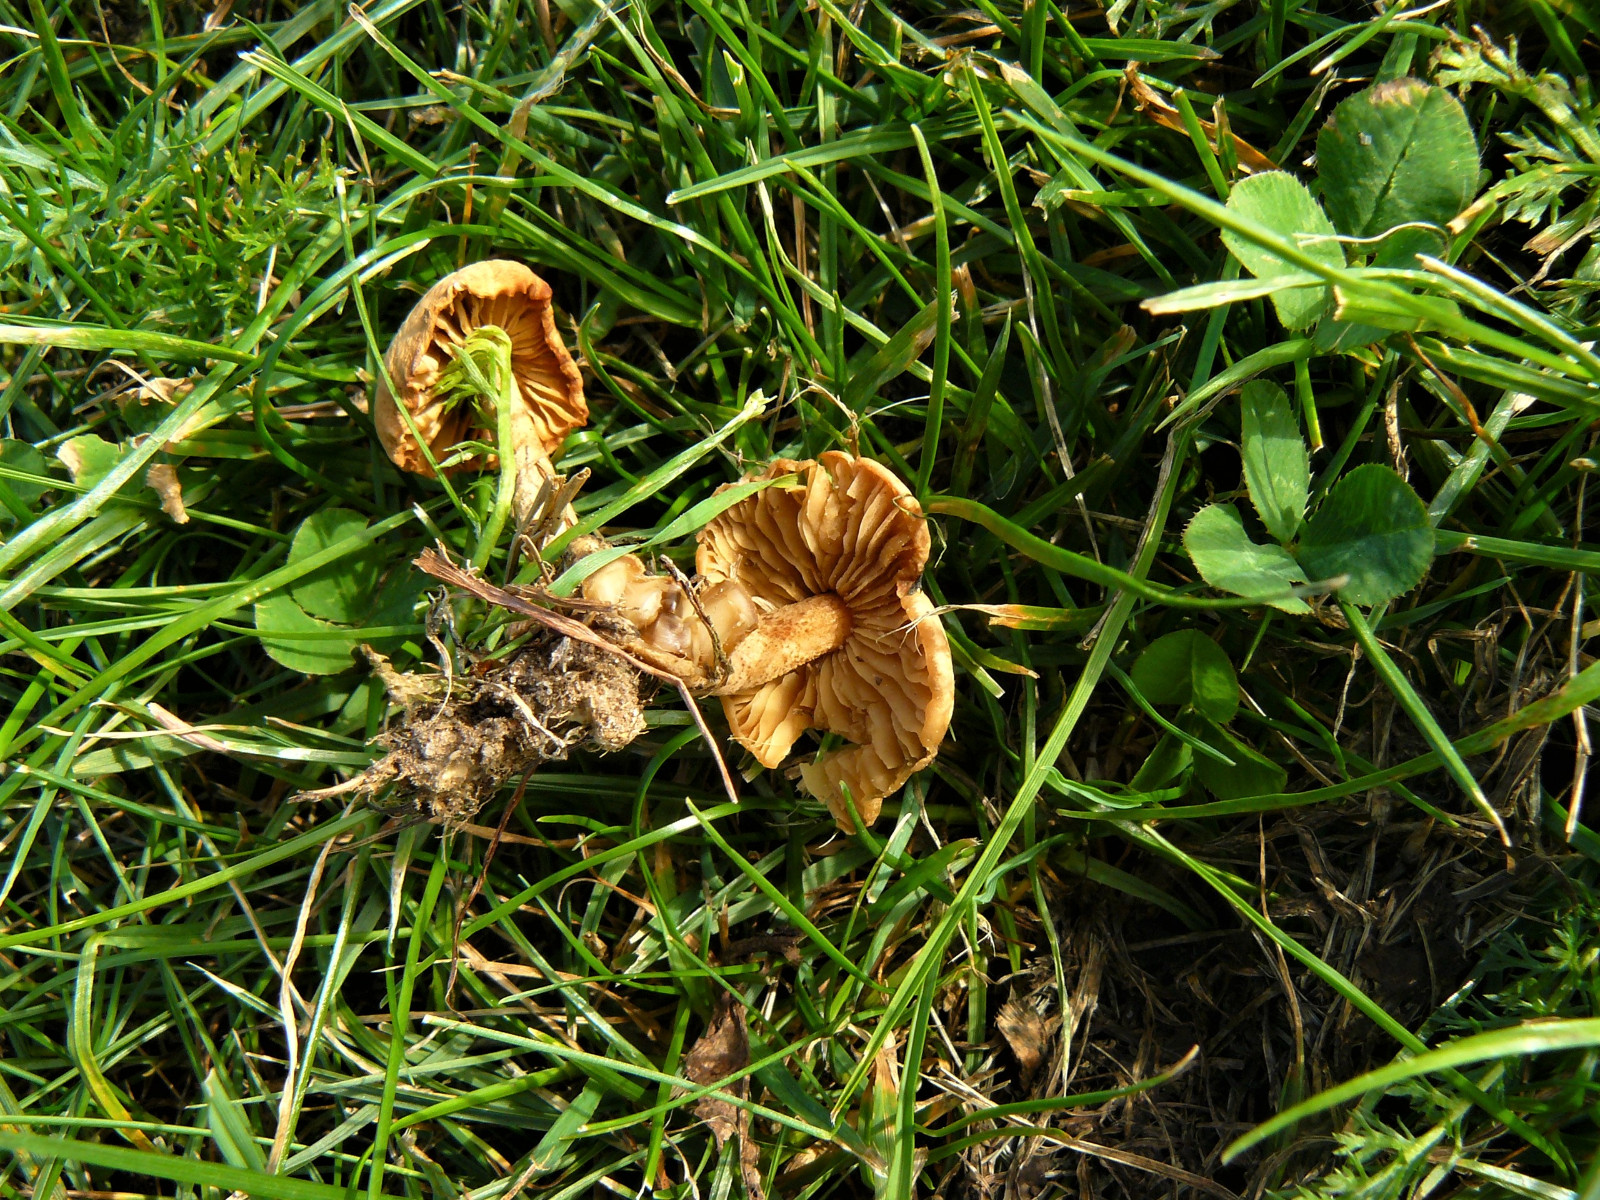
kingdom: Fungi
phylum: Basidiomycota
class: Agaricomycetes
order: Agaricales
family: Marasmiaceae
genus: Marasmius
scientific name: Marasmius oreades
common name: elledans-bruskhat
